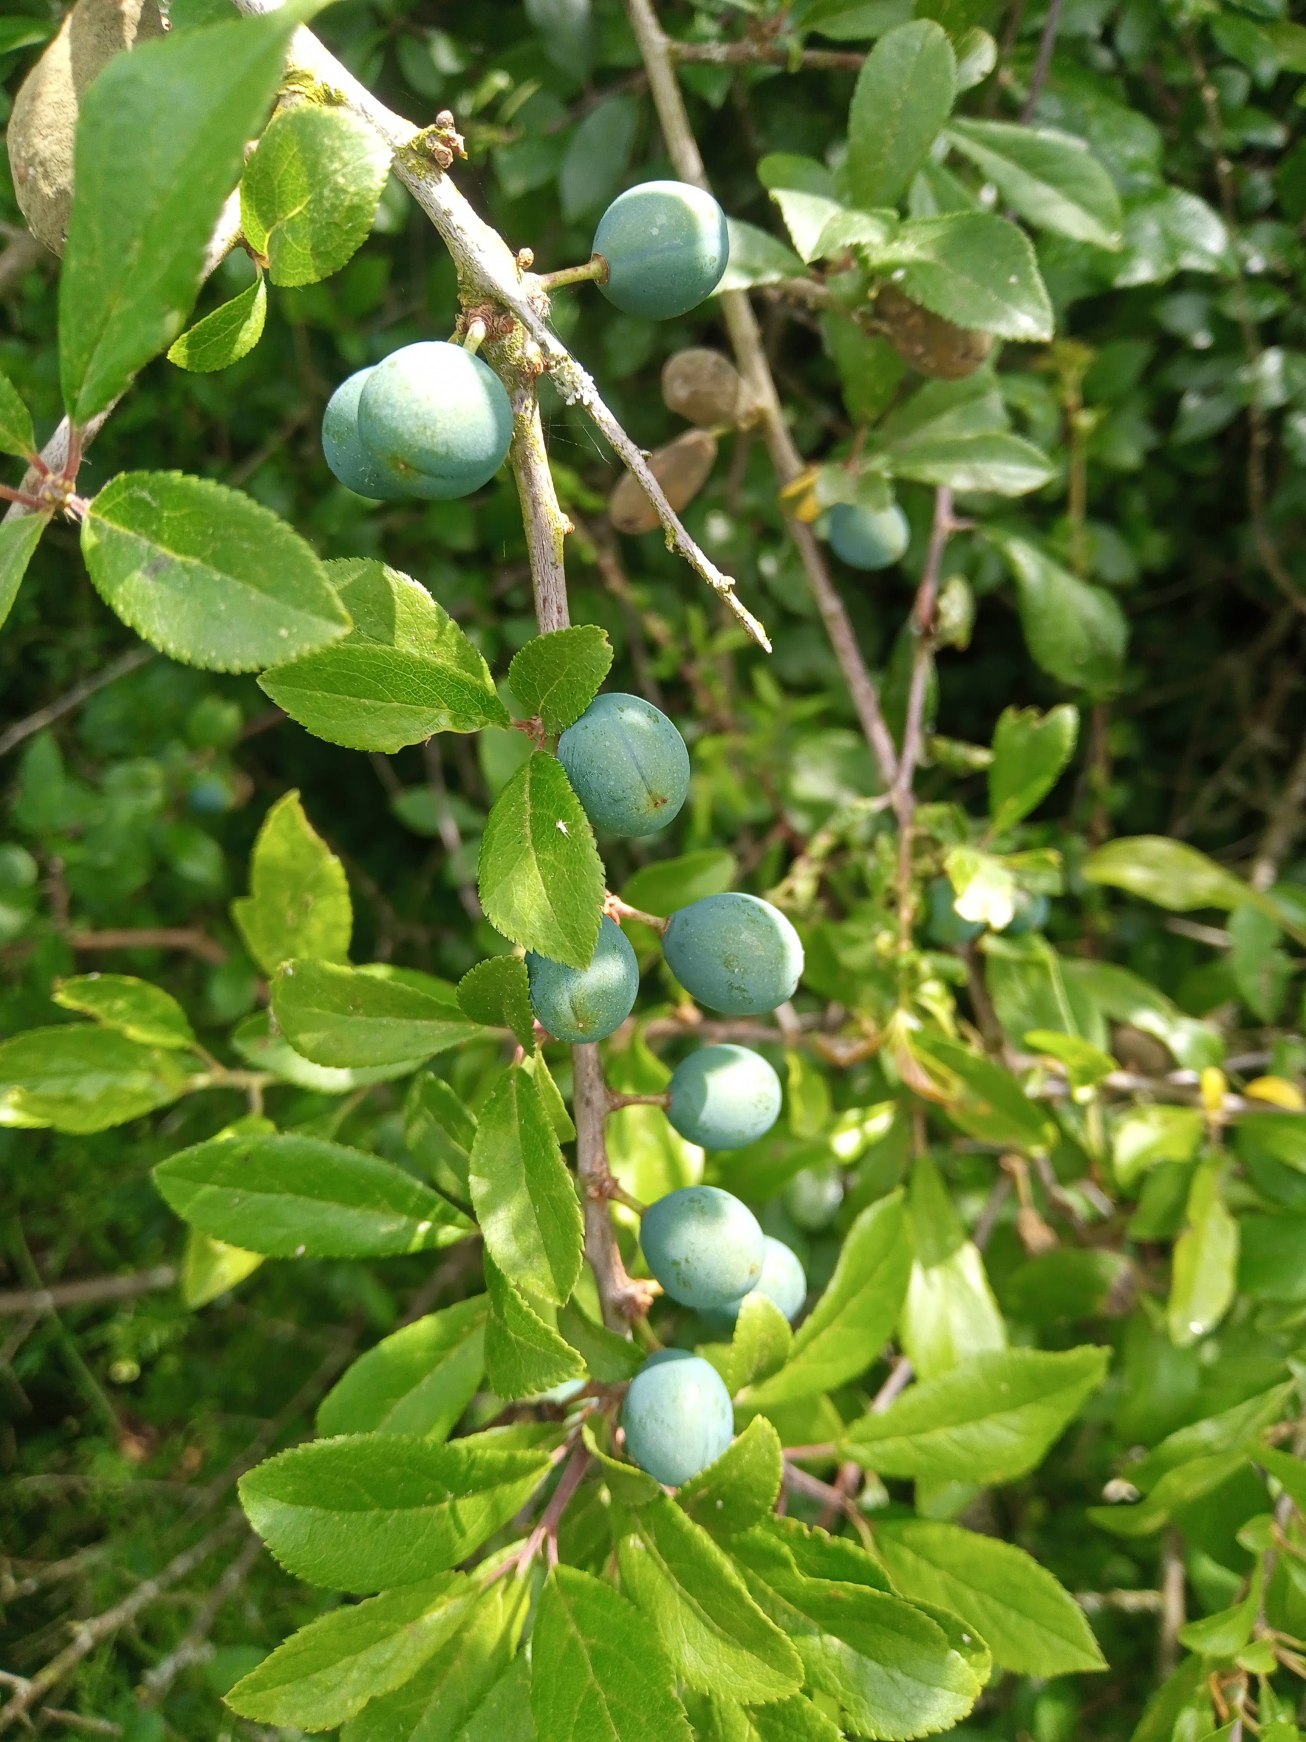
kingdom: Plantae
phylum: Tracheophyta
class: Magnoliopsida
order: Rosales
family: Rosaceae
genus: Prunus
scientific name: Prunus spinosa
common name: Slåen
